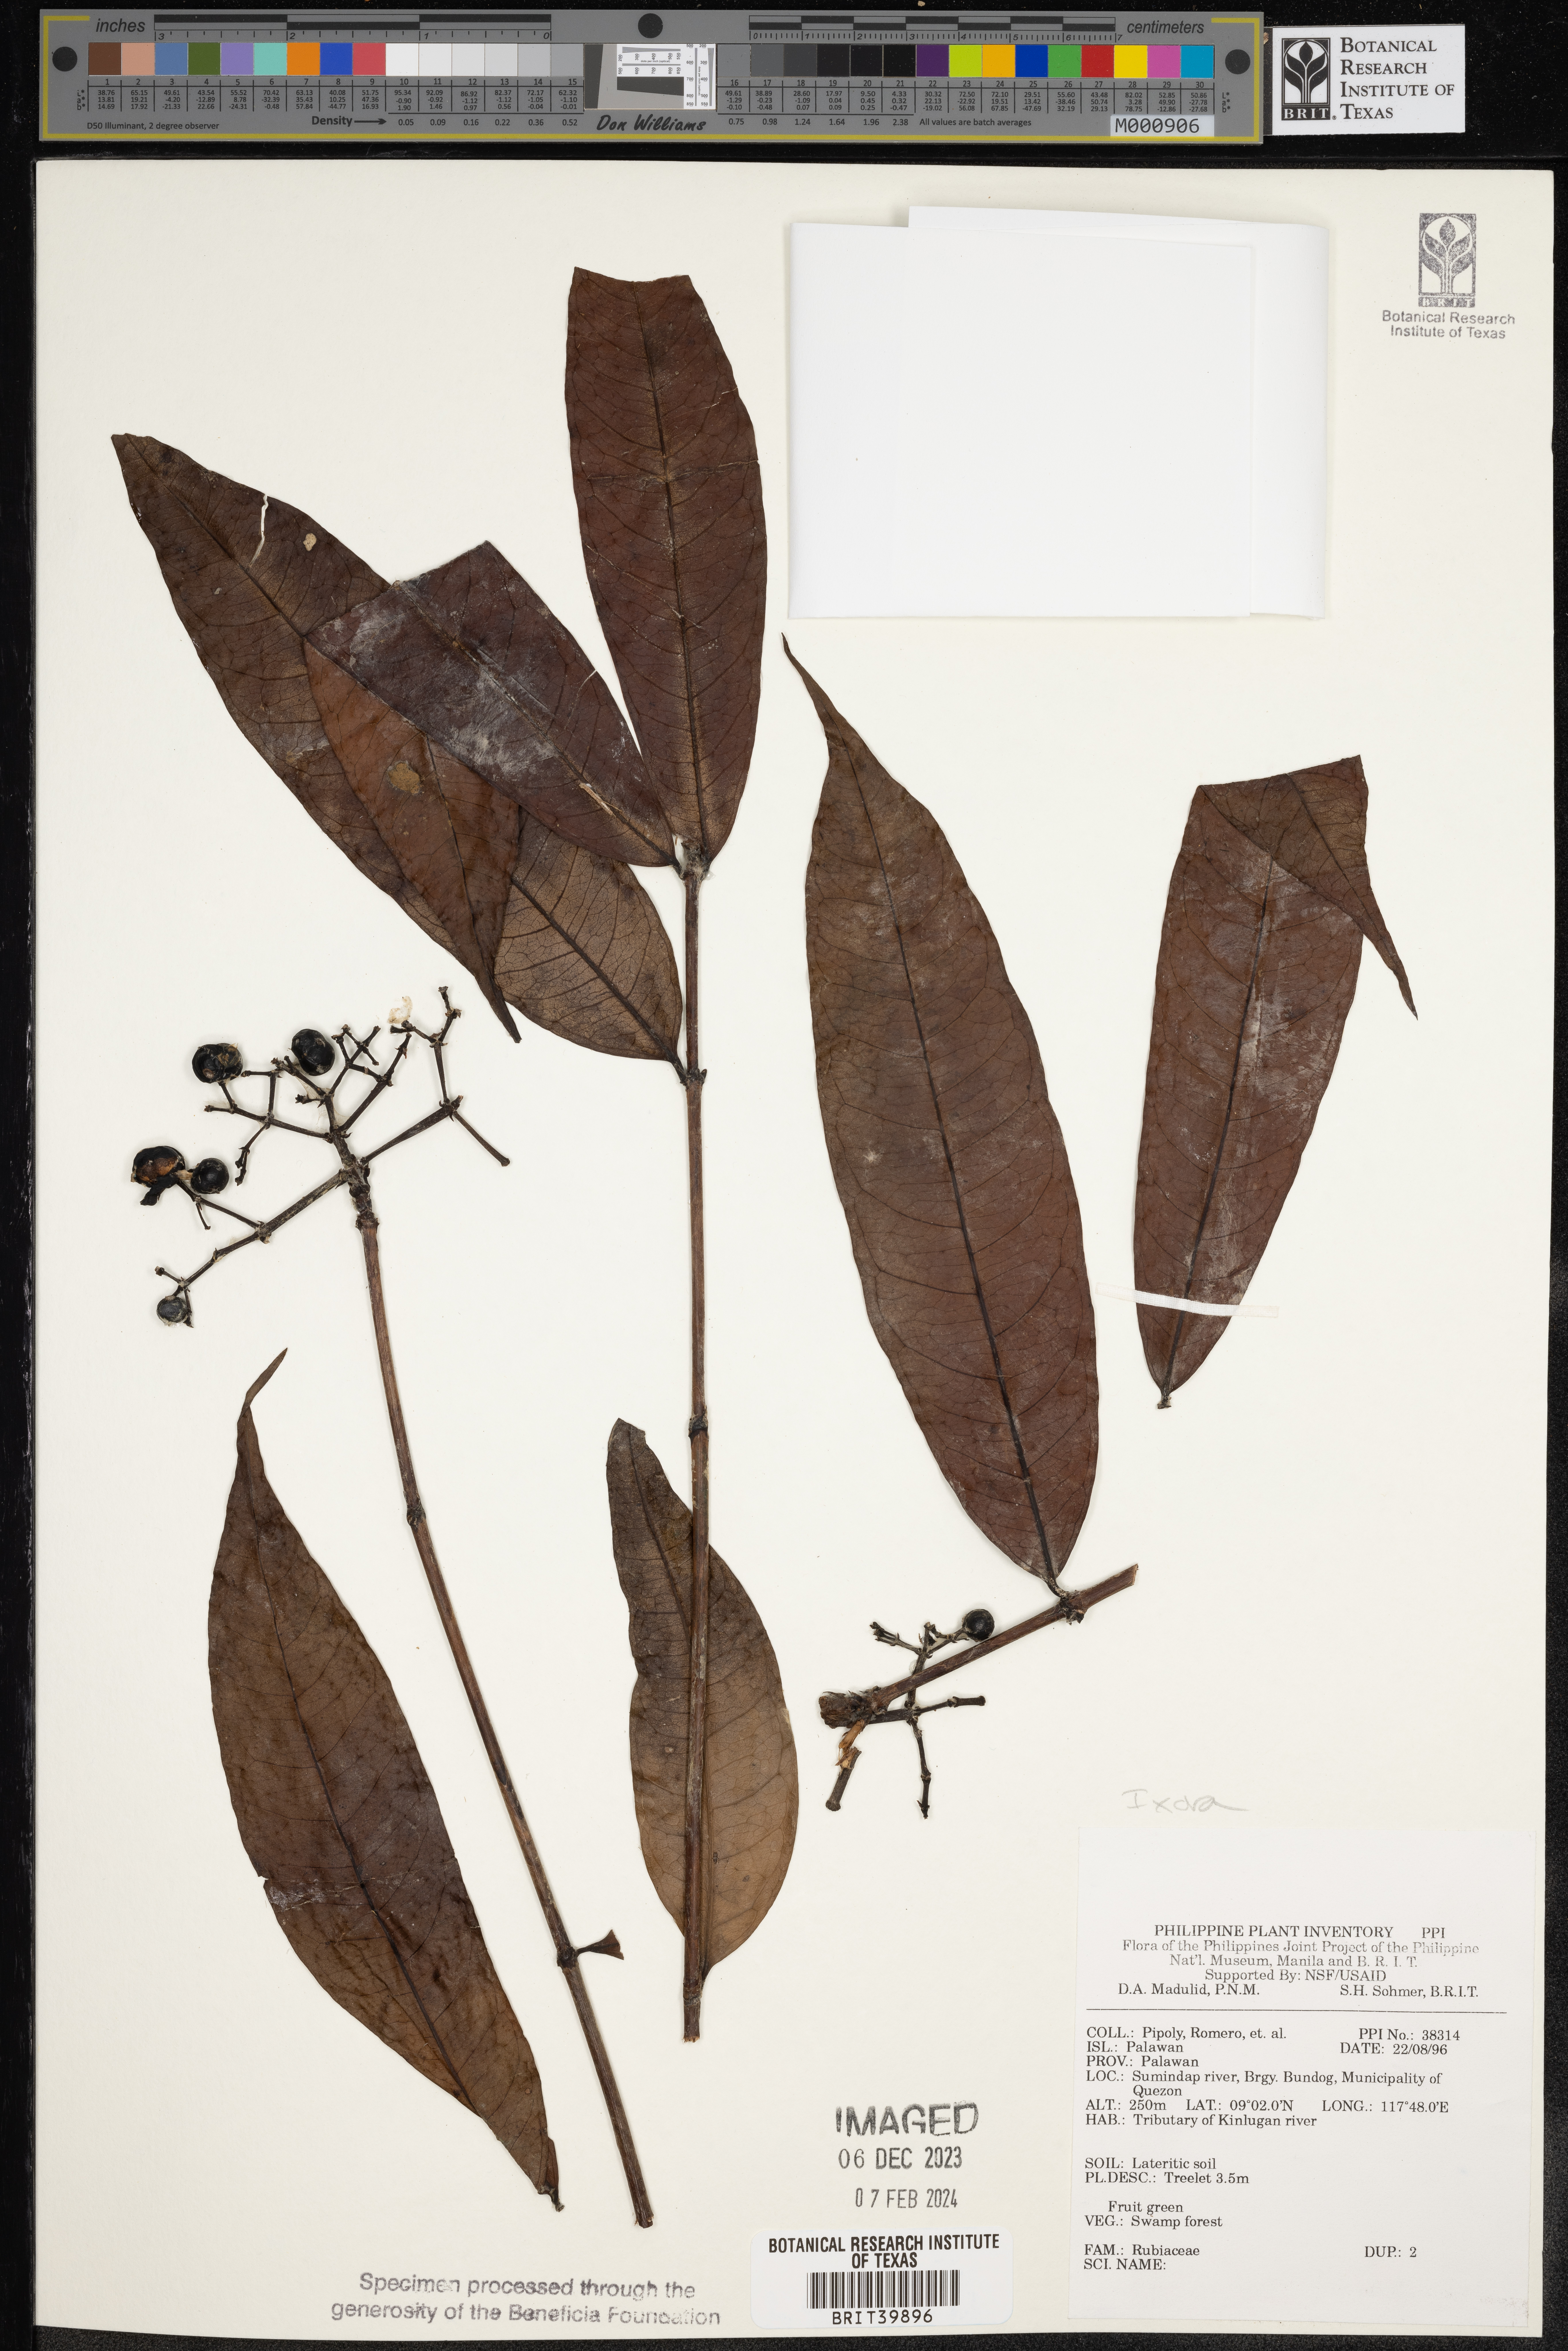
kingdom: Plantae
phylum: Tracheophyta
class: Magnoliopsida
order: Gentianales
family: Rubiaceae
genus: Ixora
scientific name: Ixora
